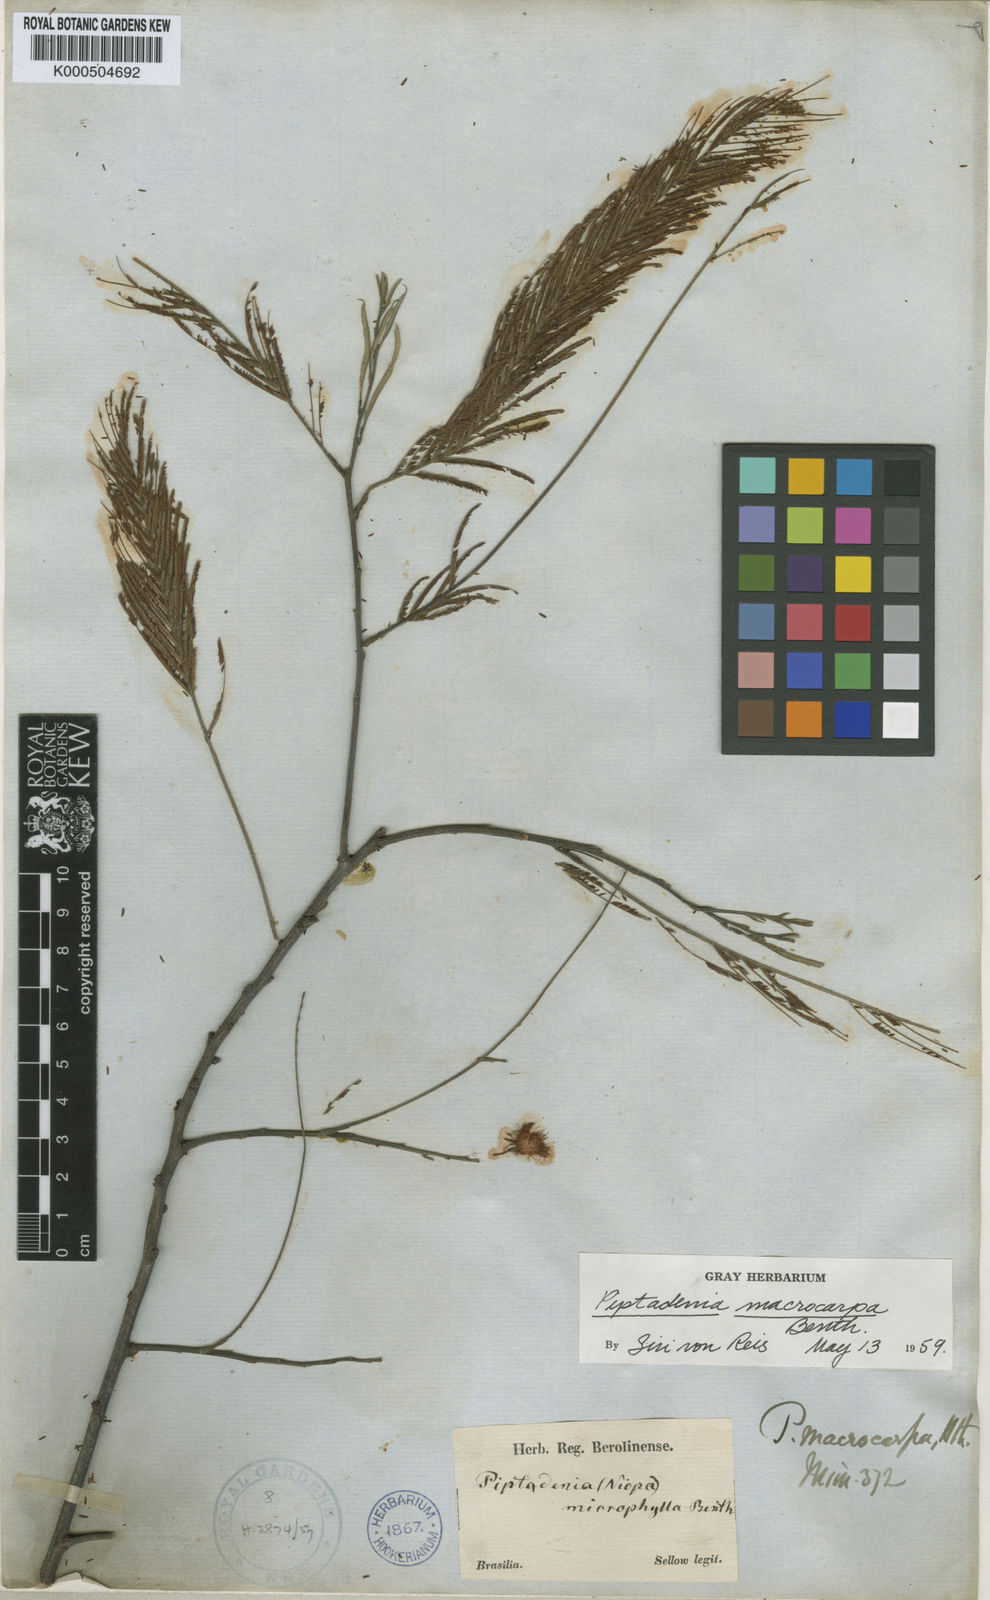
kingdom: Plantae
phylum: Tracheophyta
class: Magnoliopsida
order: Fabales
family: Fabaceae
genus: Anadenanthera
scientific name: Anadenanthera colubrina
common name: Curupay
